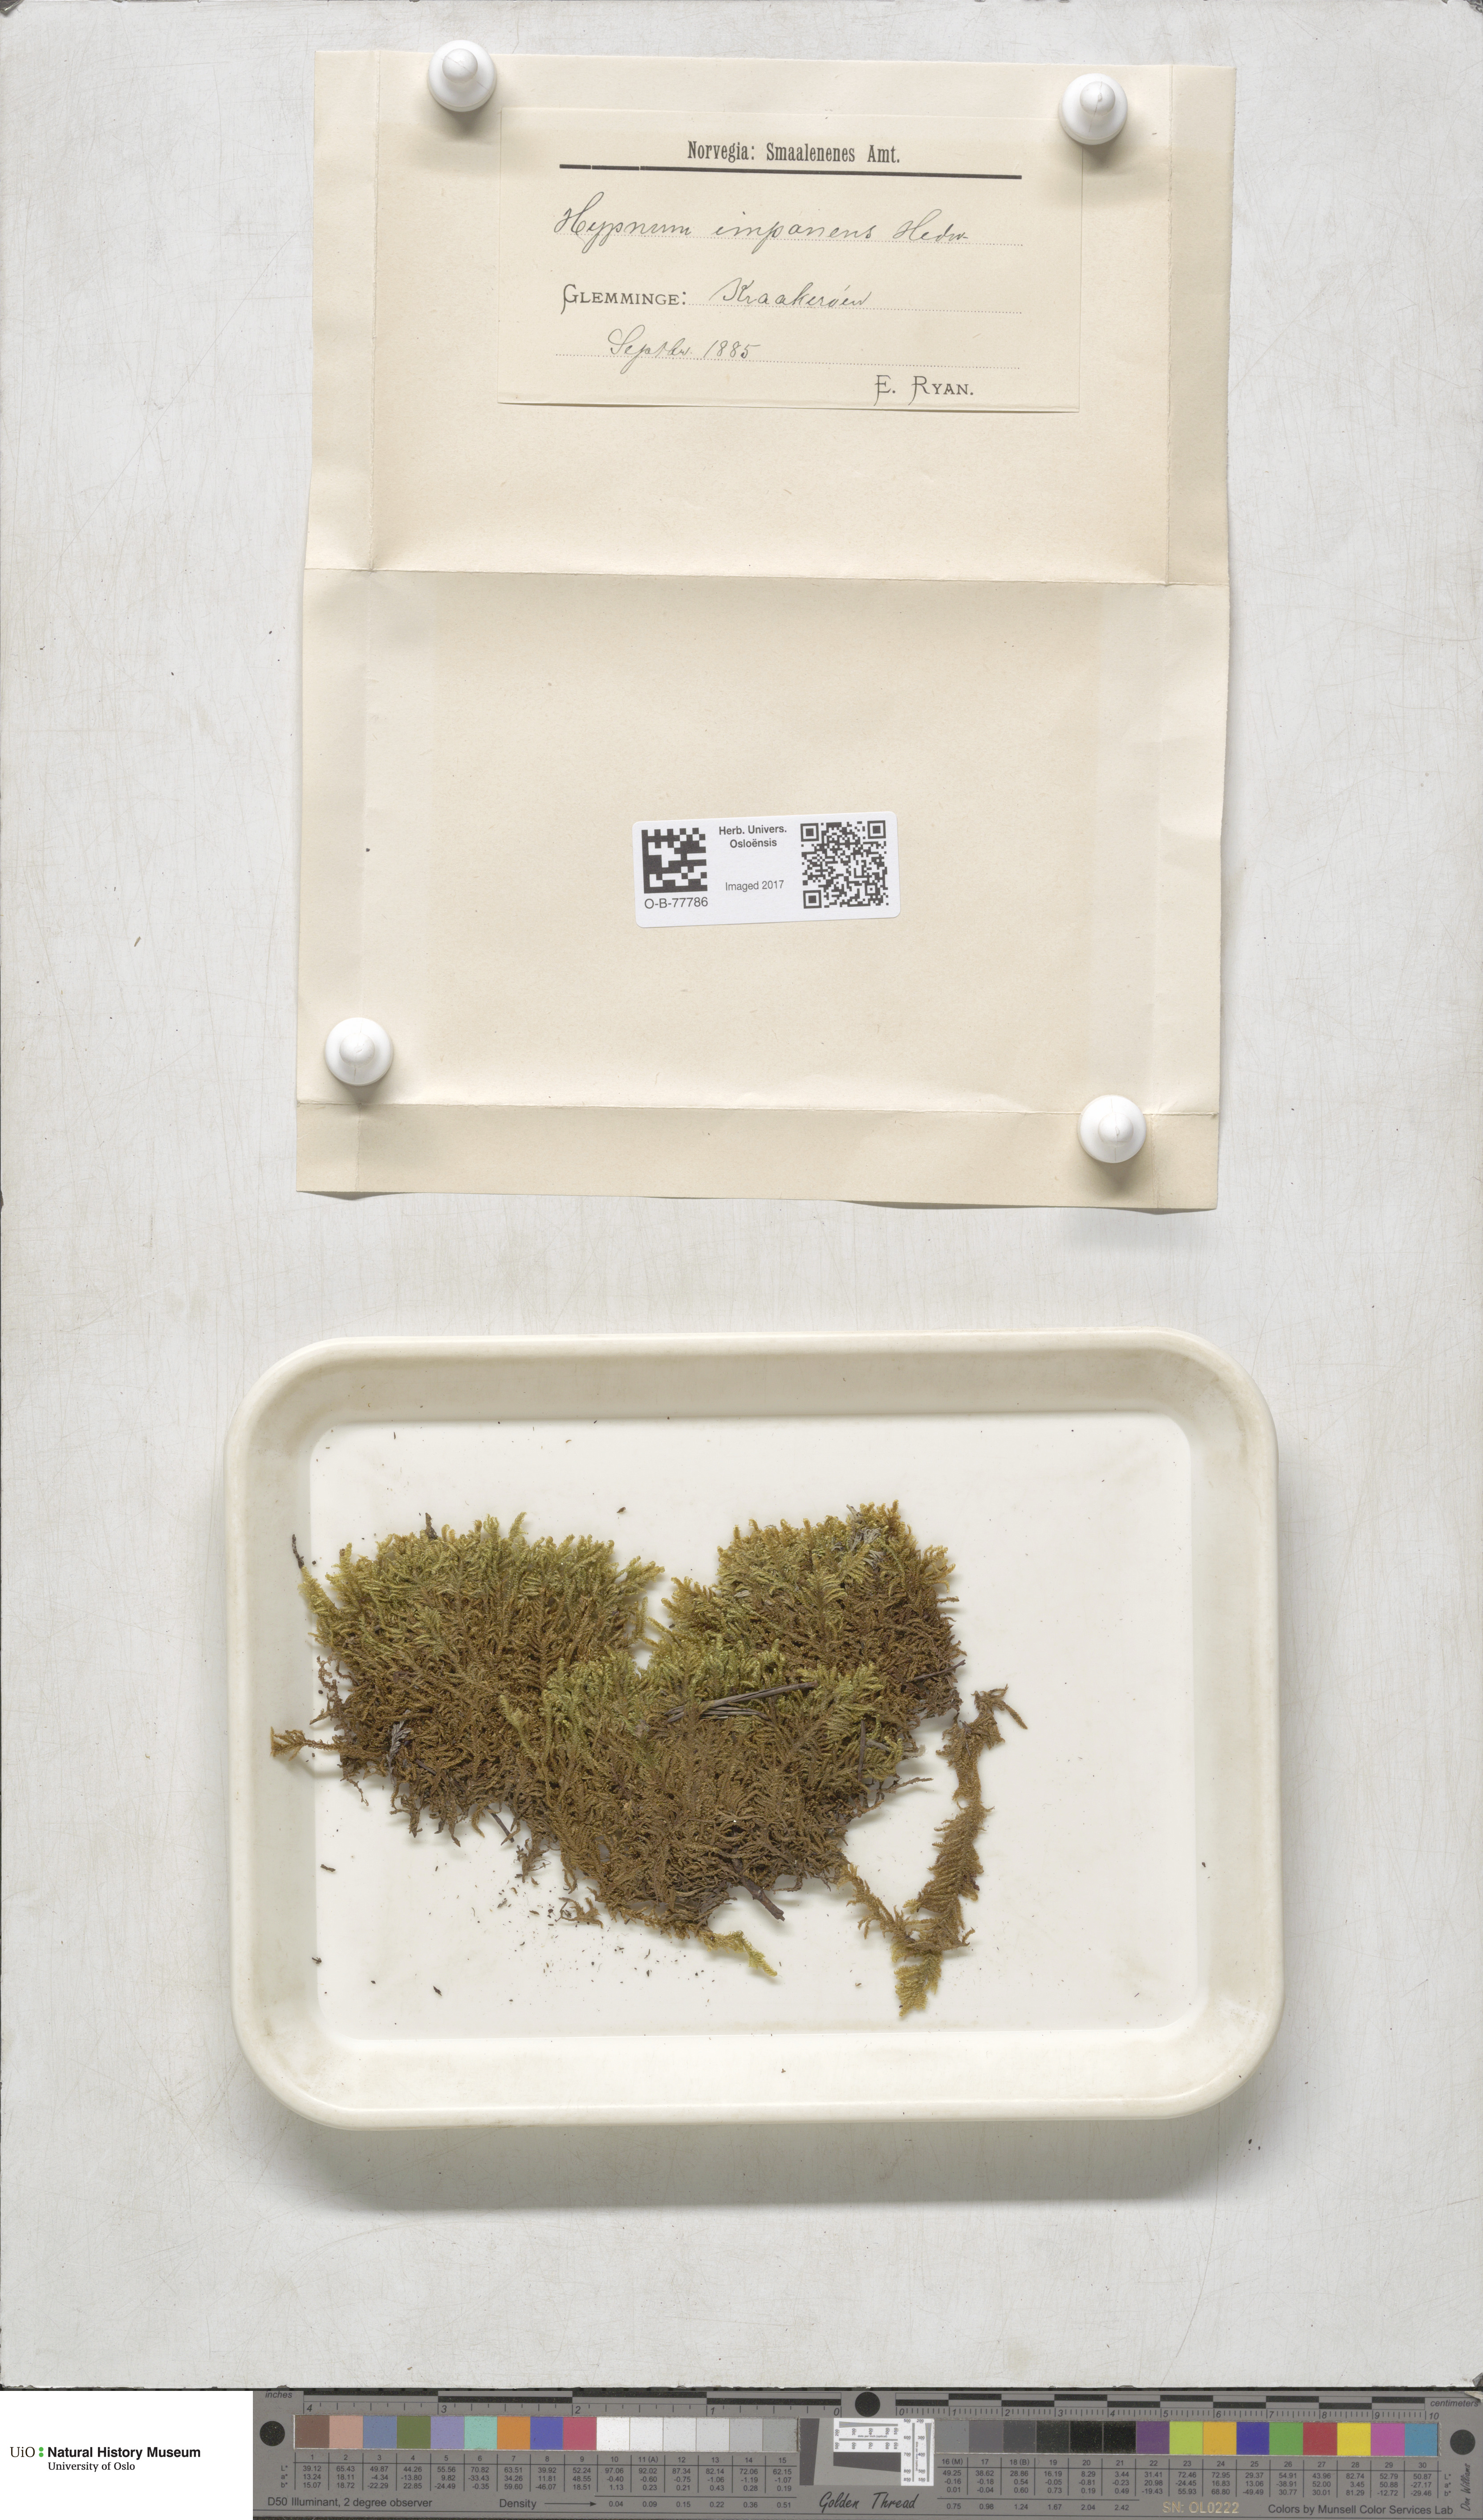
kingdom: Plantae
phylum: Bryophyta
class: Bryopsida
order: Hypnales
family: Callicladiaceae
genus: Callicladium
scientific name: Callicladium imponens
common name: Brocade moss
